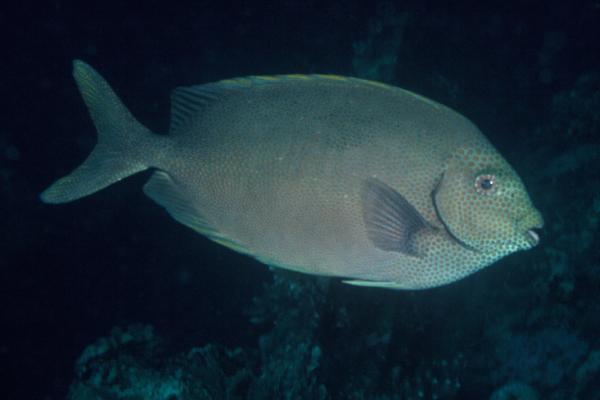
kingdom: Animalia
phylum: Chordata
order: Perciformes
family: Siganidae
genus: Siganus
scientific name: Siganus punctatus
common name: Gold-spotted rabbitfish
